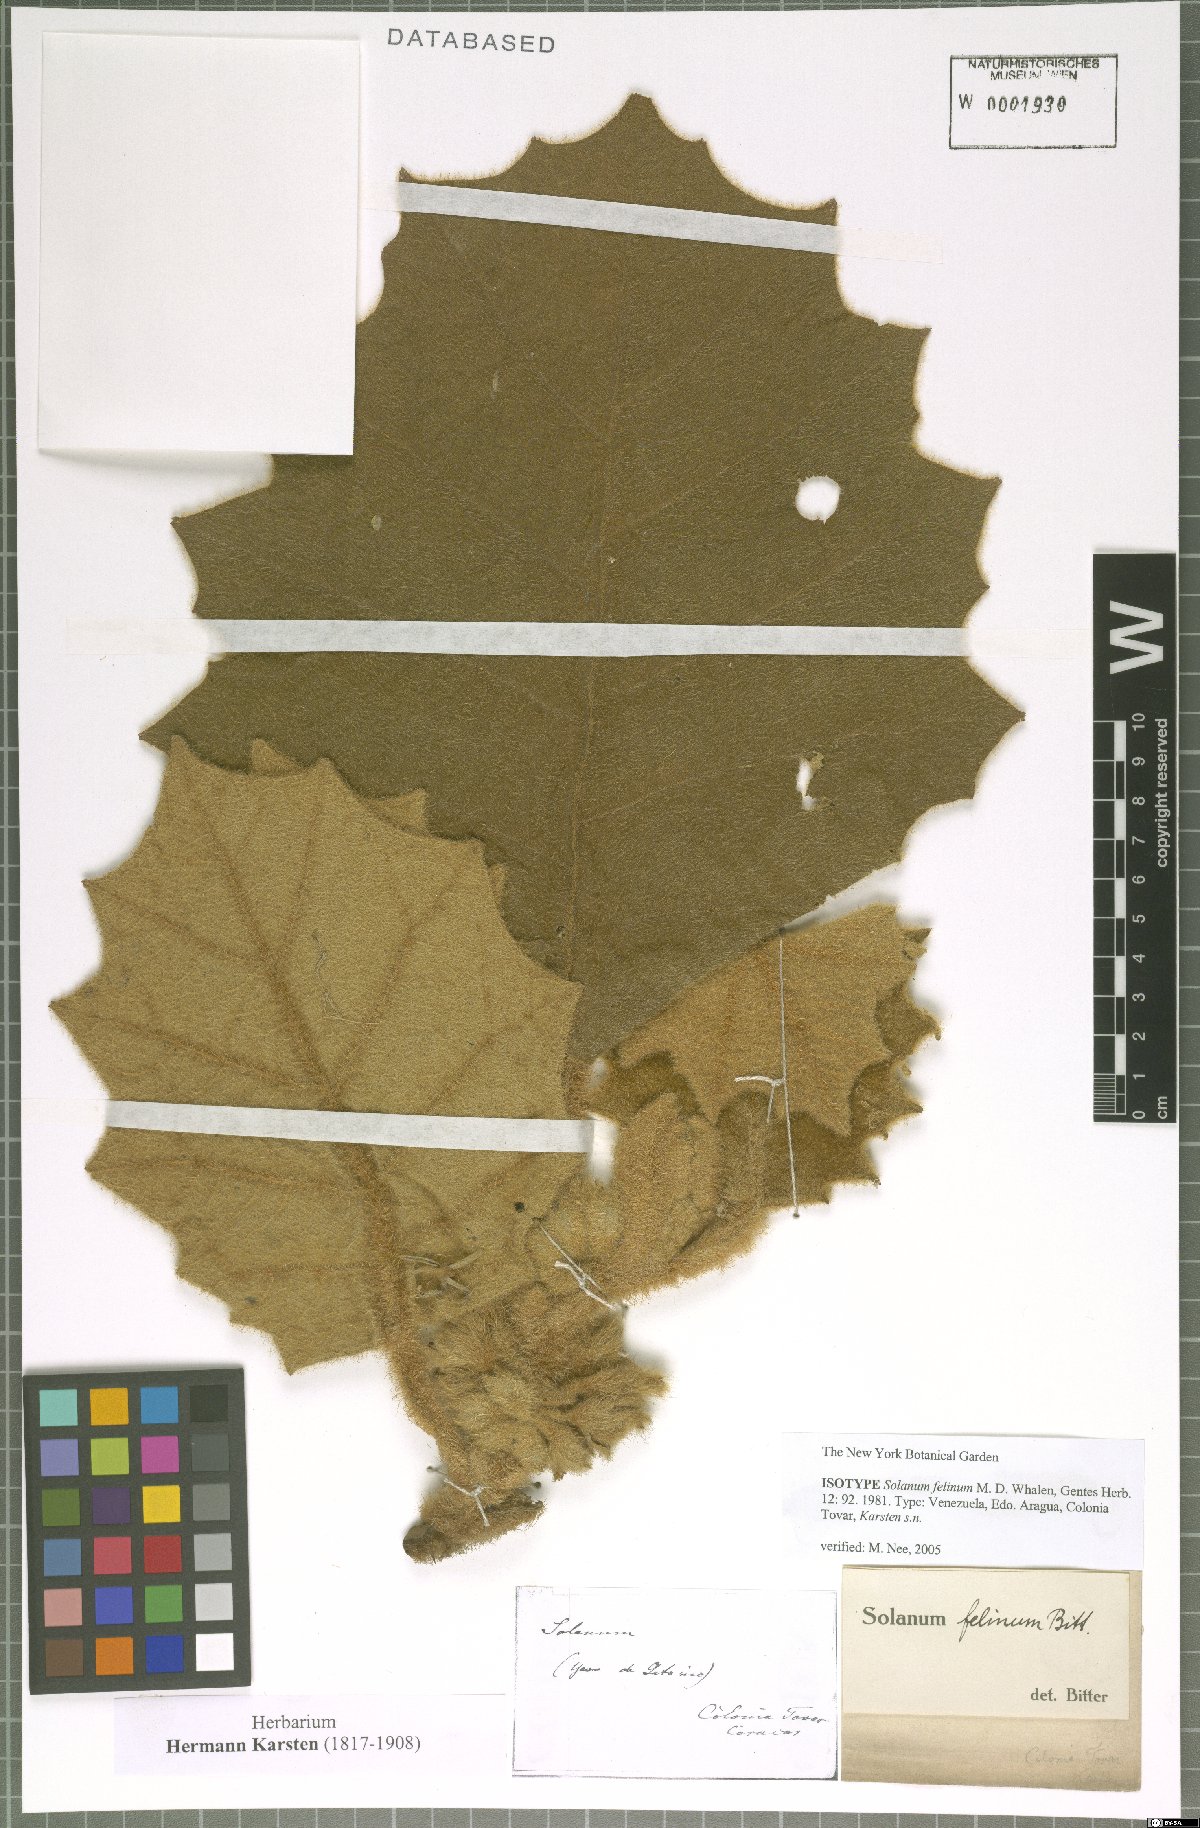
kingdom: Plantae
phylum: Tracheophyta
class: Magnoliopsida
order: Solanales
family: Solanaceae
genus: Solanum
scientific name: Solanum felinum
